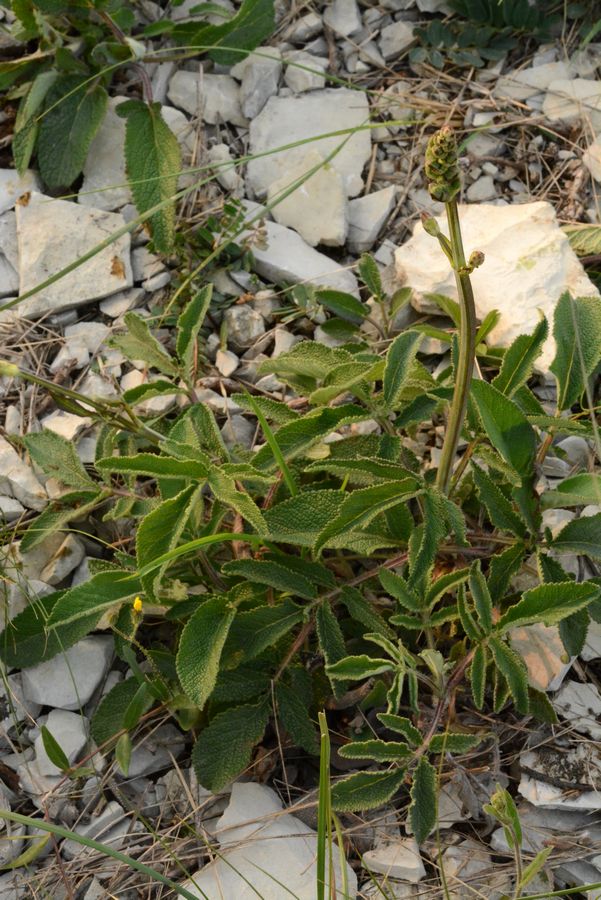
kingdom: Plantae
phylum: Tracheophyta
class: Magnoliopsida
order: Lamiales
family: Lamiaceae
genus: Salvia
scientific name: Salvia ringens
